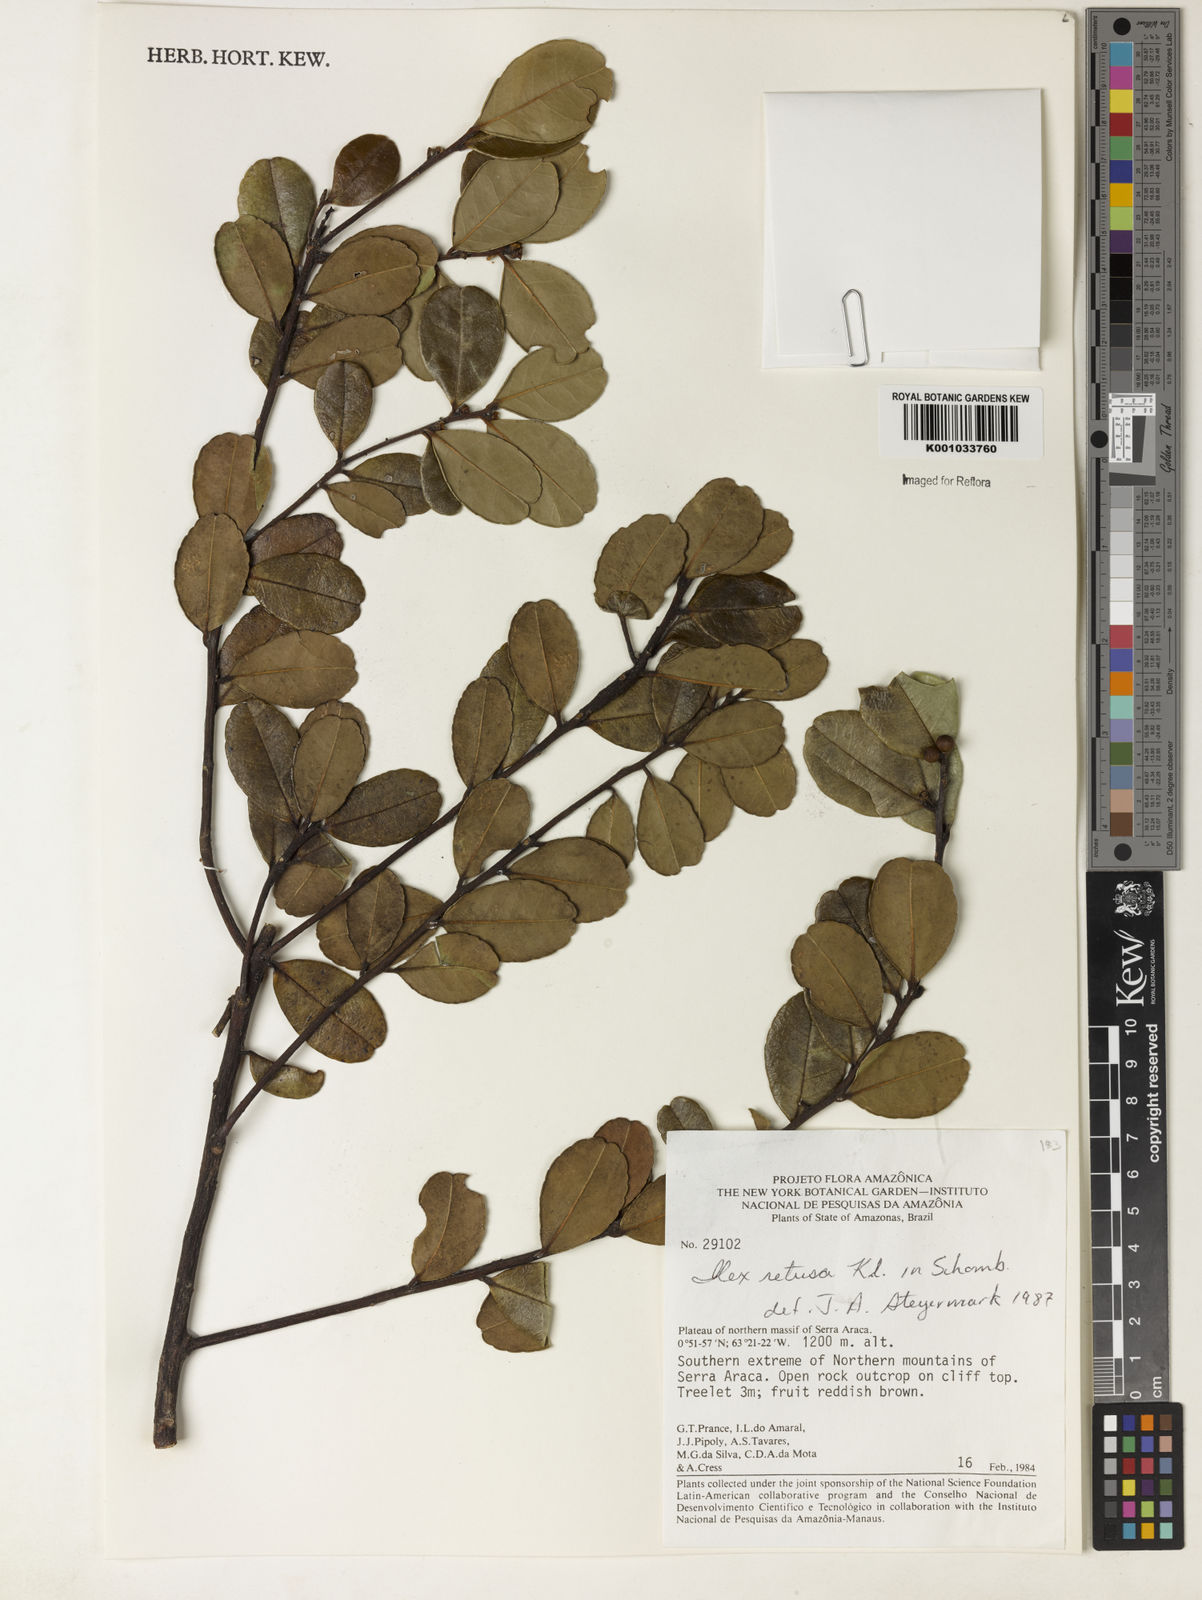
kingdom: Plantae
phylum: Tracheophyta
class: Magnoliopsida
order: Aquifoliales
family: Aquifoliaceae
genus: Ilex
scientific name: Ilex
